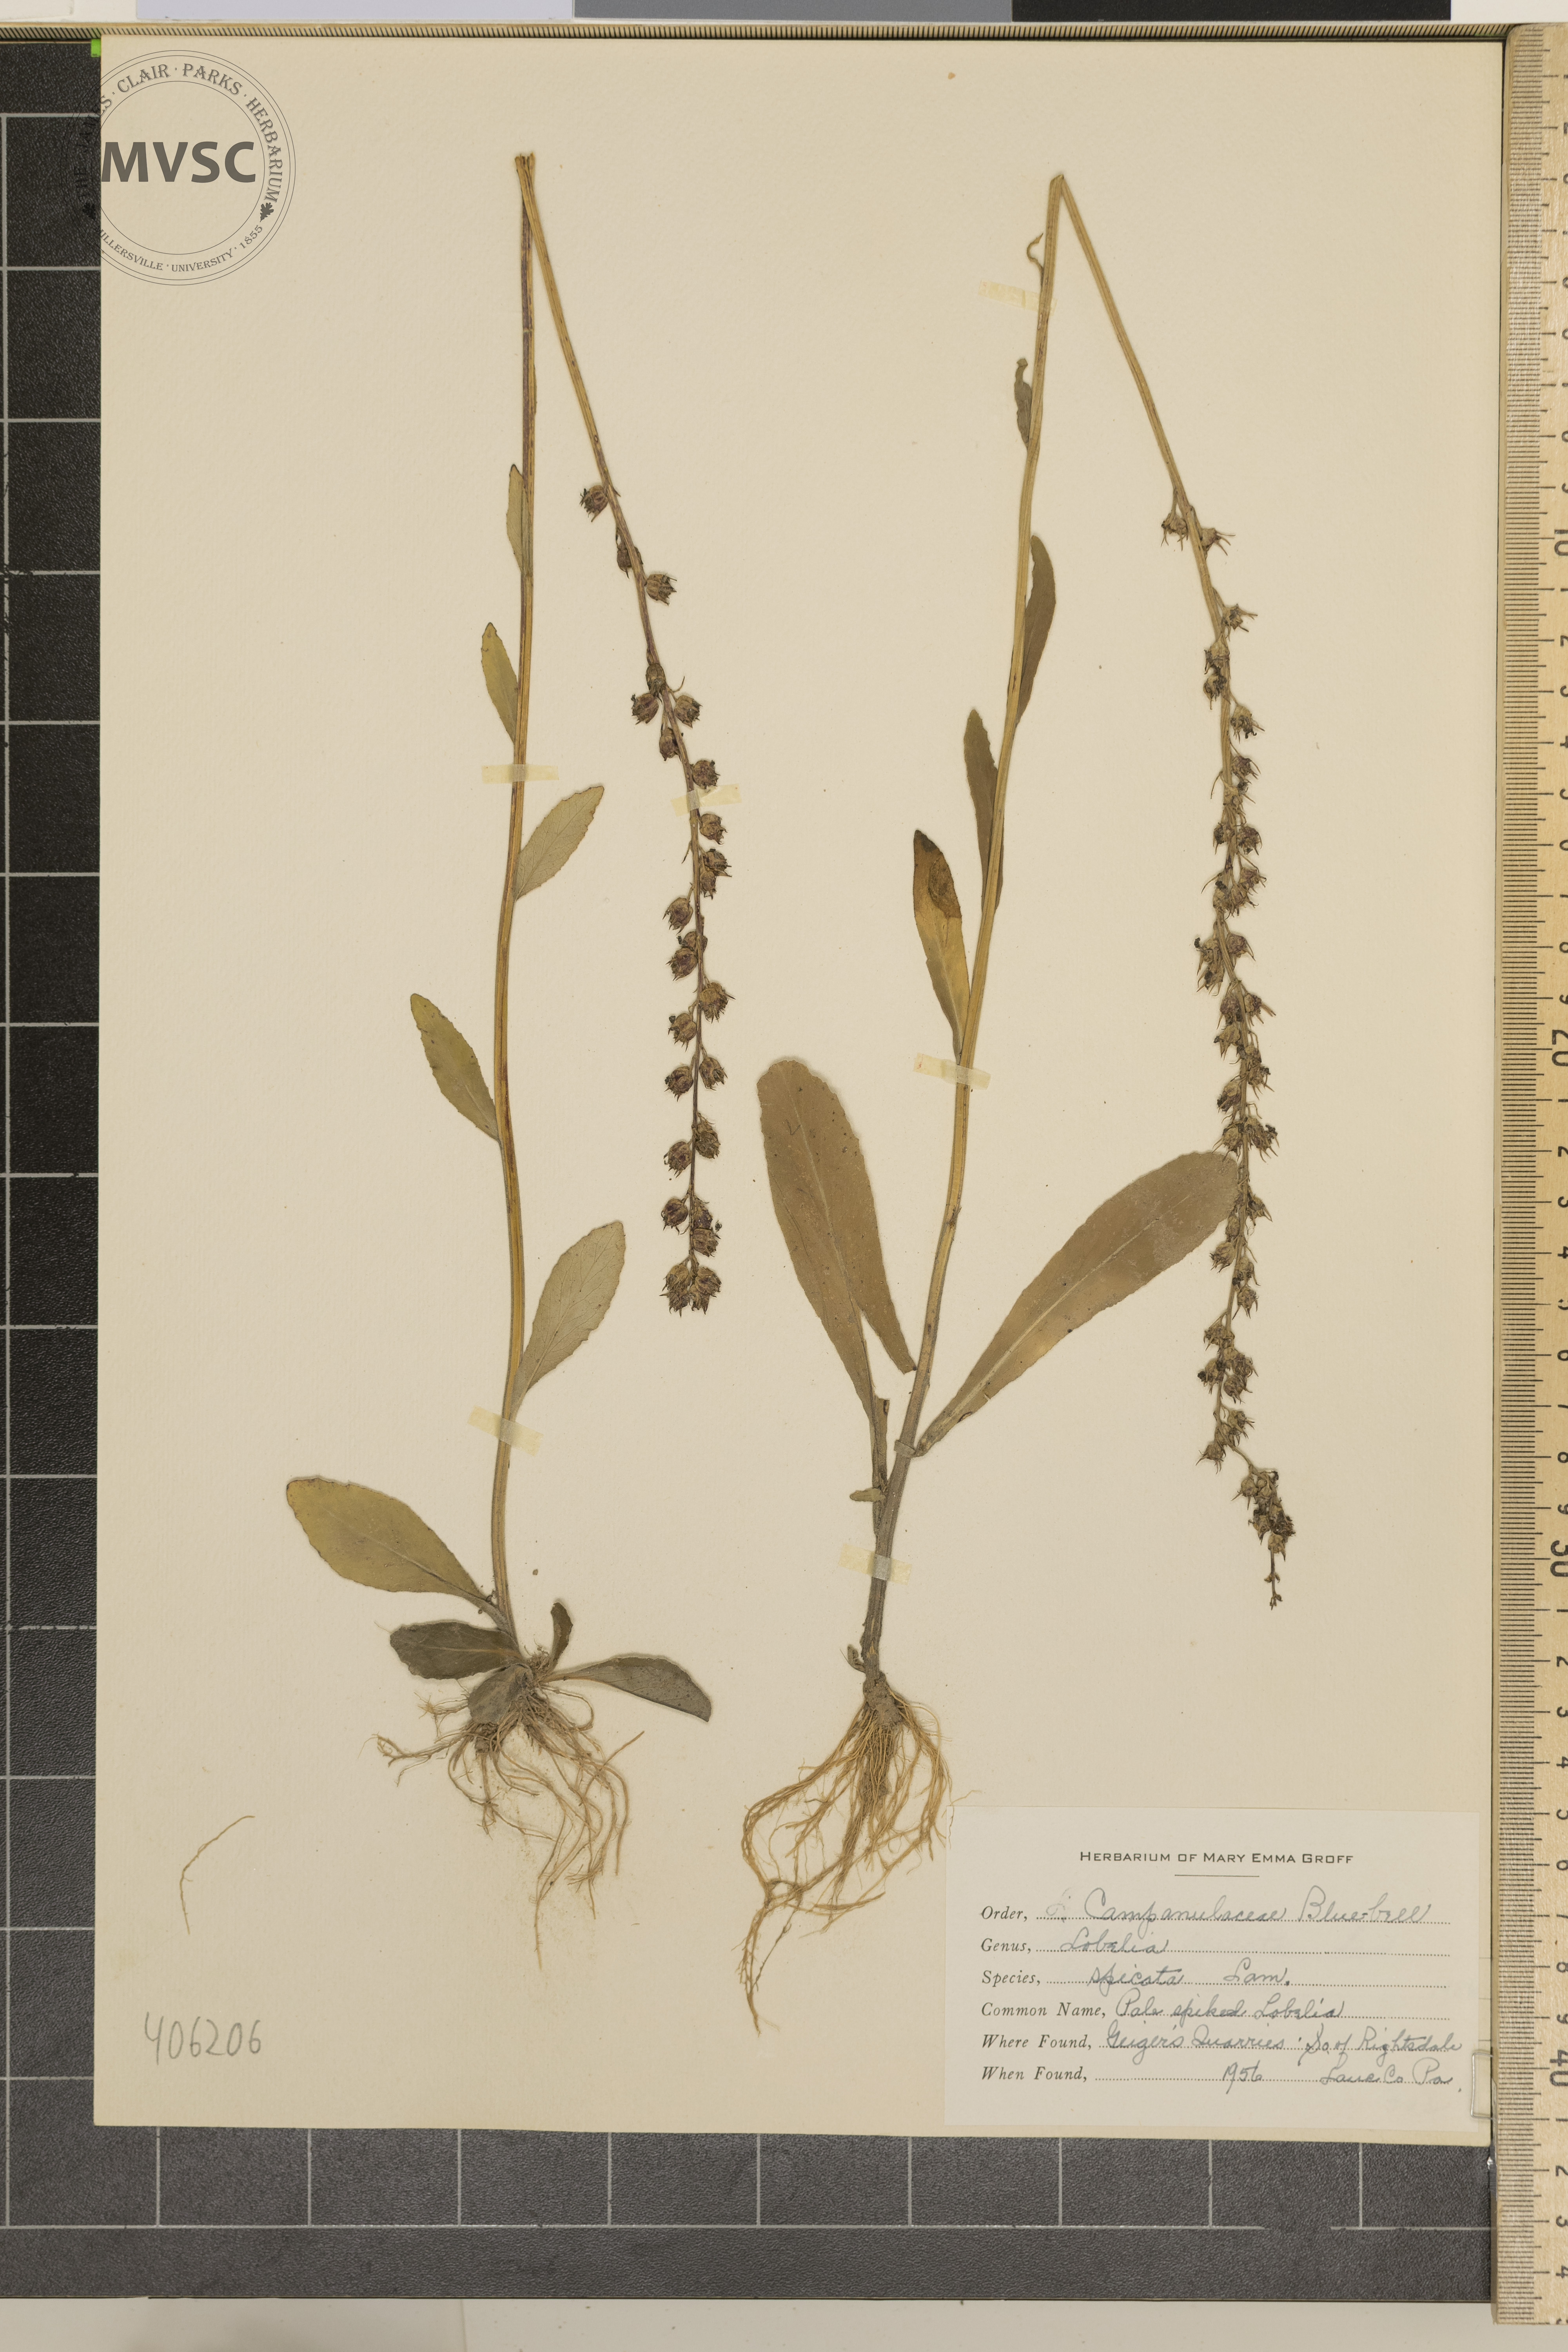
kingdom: Plantae
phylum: Tracheophyta
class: Magnoliopsida
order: Asterales
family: Campanulaceae
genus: Lobelia
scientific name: Lobelia spicata
